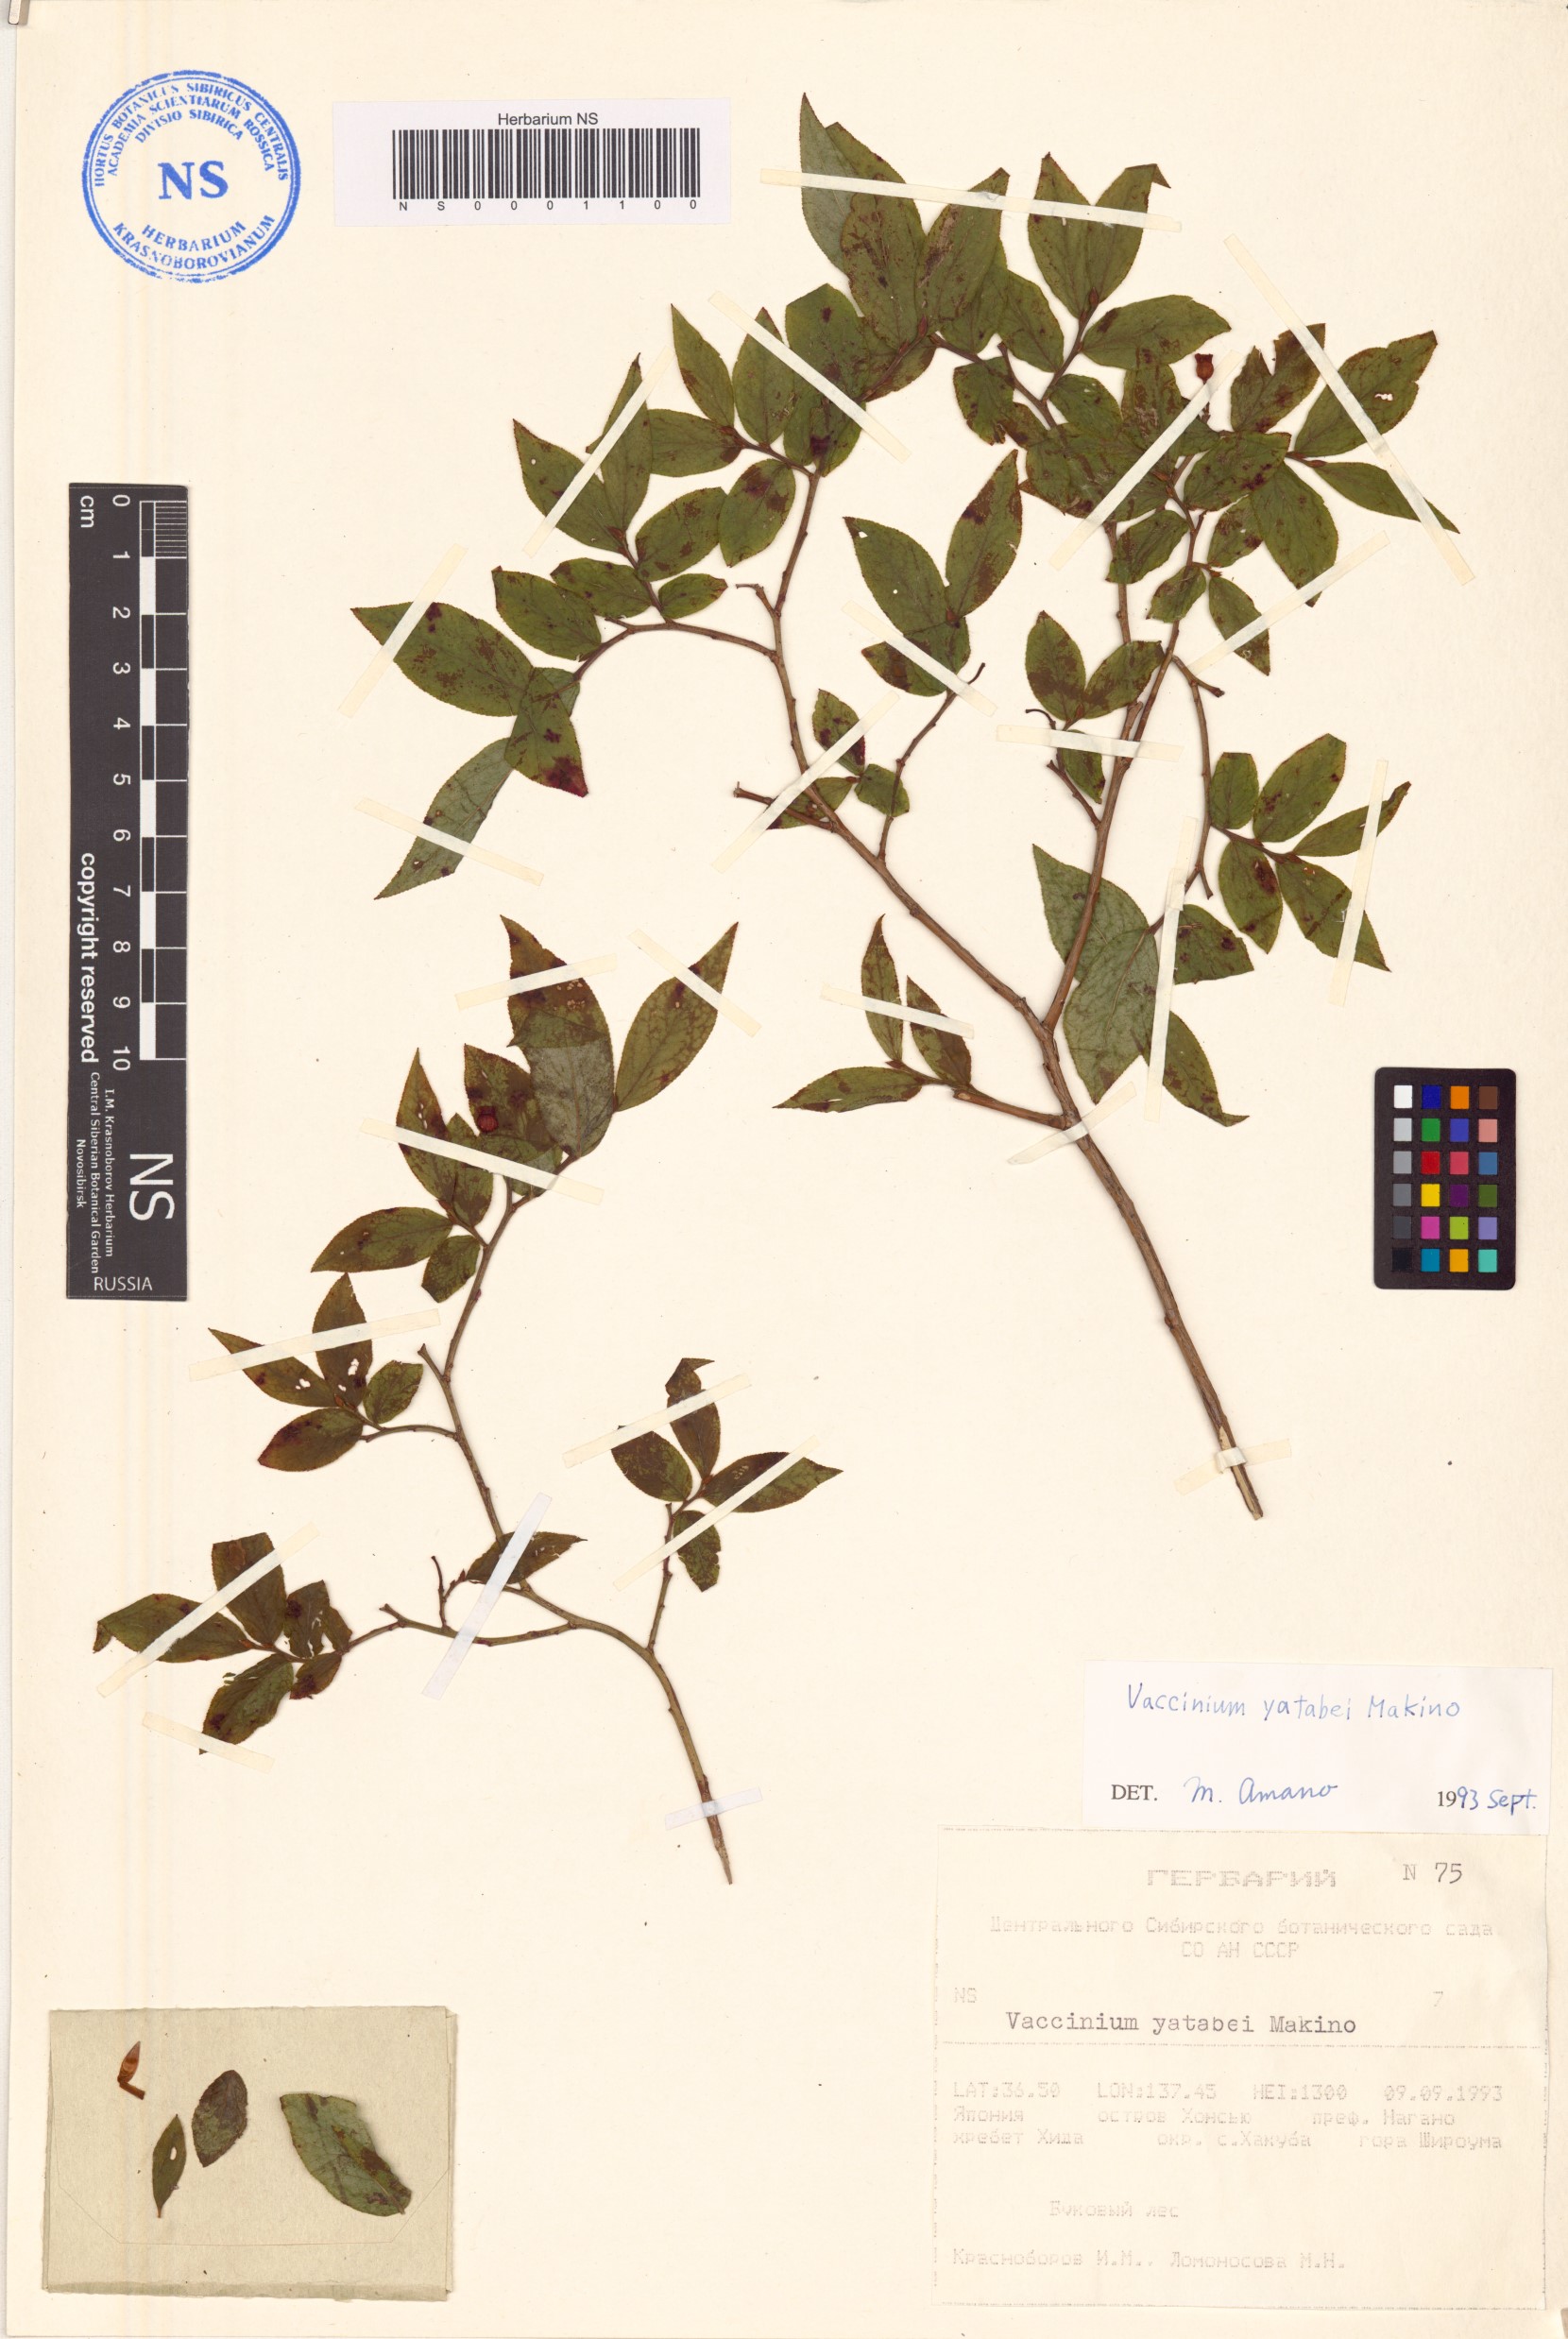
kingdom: Plantae
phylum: Tracheophyta
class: Magnoliopsida
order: Ericales
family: Ericaceae
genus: Vaccinium
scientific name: Vaccinium yatabei
